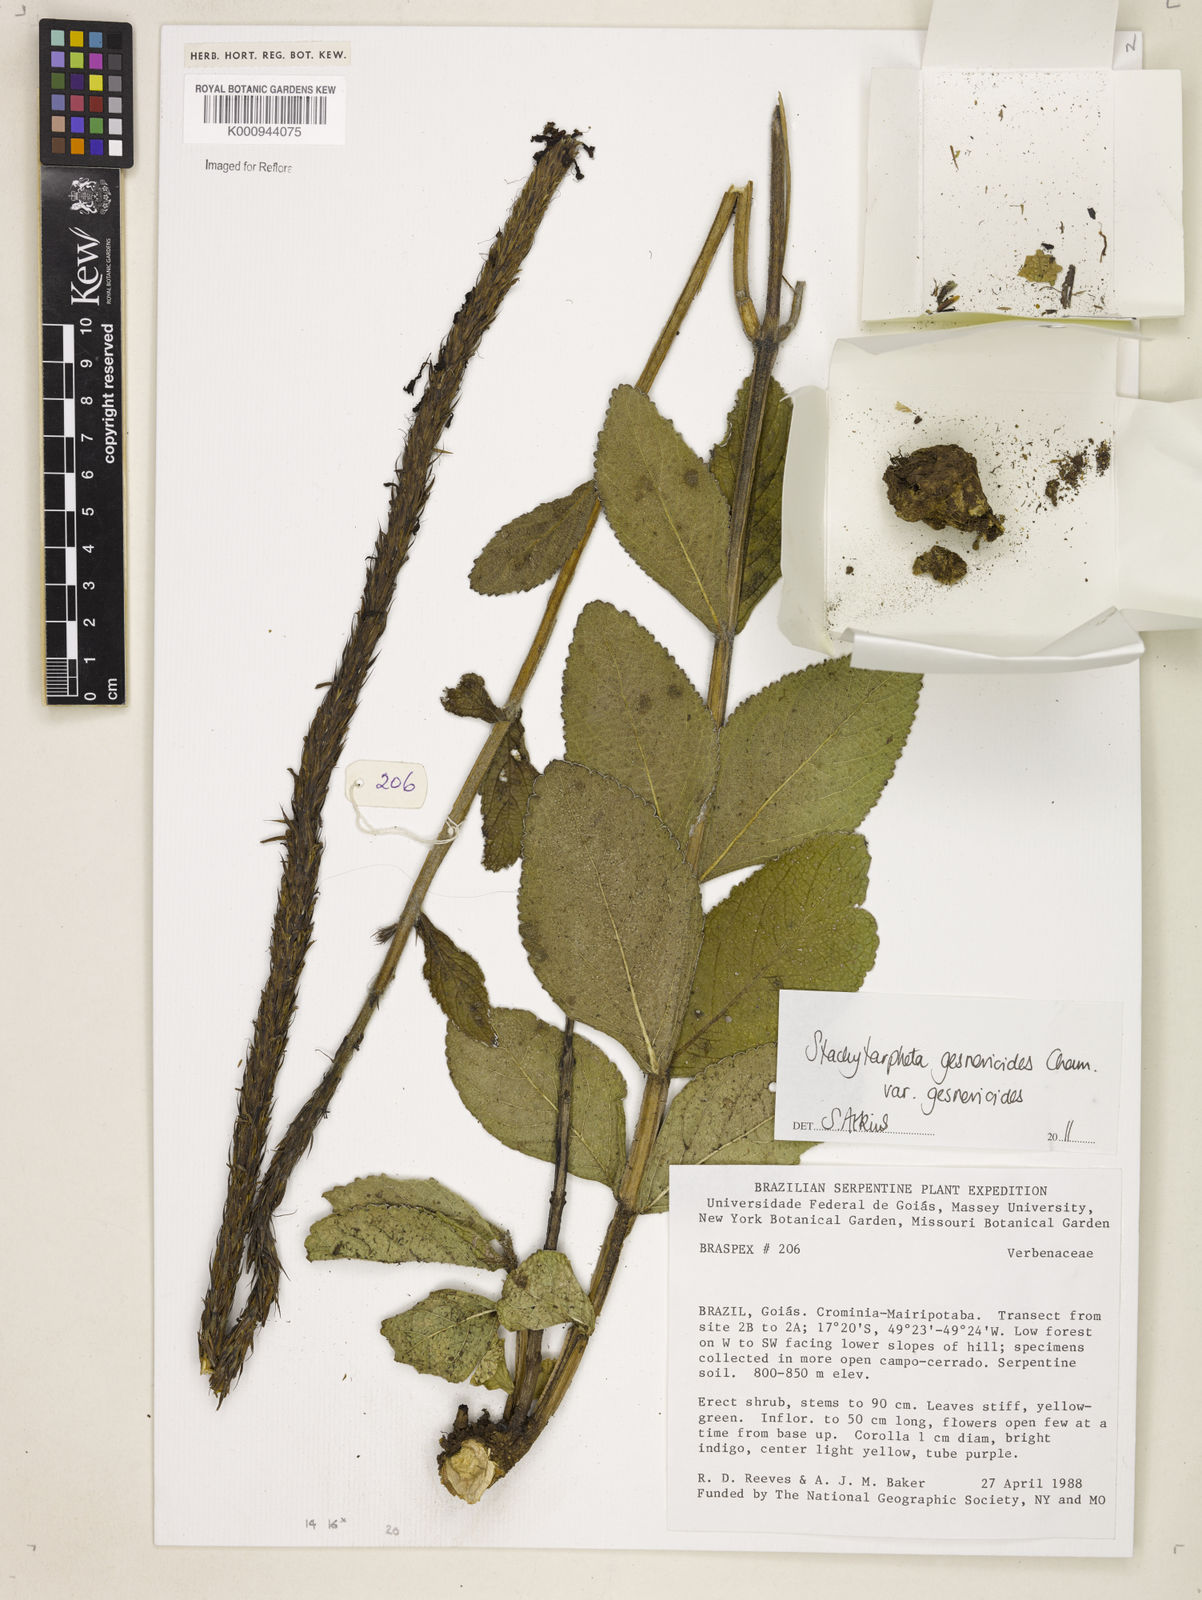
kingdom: Plantae
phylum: Tracheophyta
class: Magnoliopsida
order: Lamiales
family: Verbenaceae
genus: Stachytarpheta
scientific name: Stachytarpheta gesnerioides
